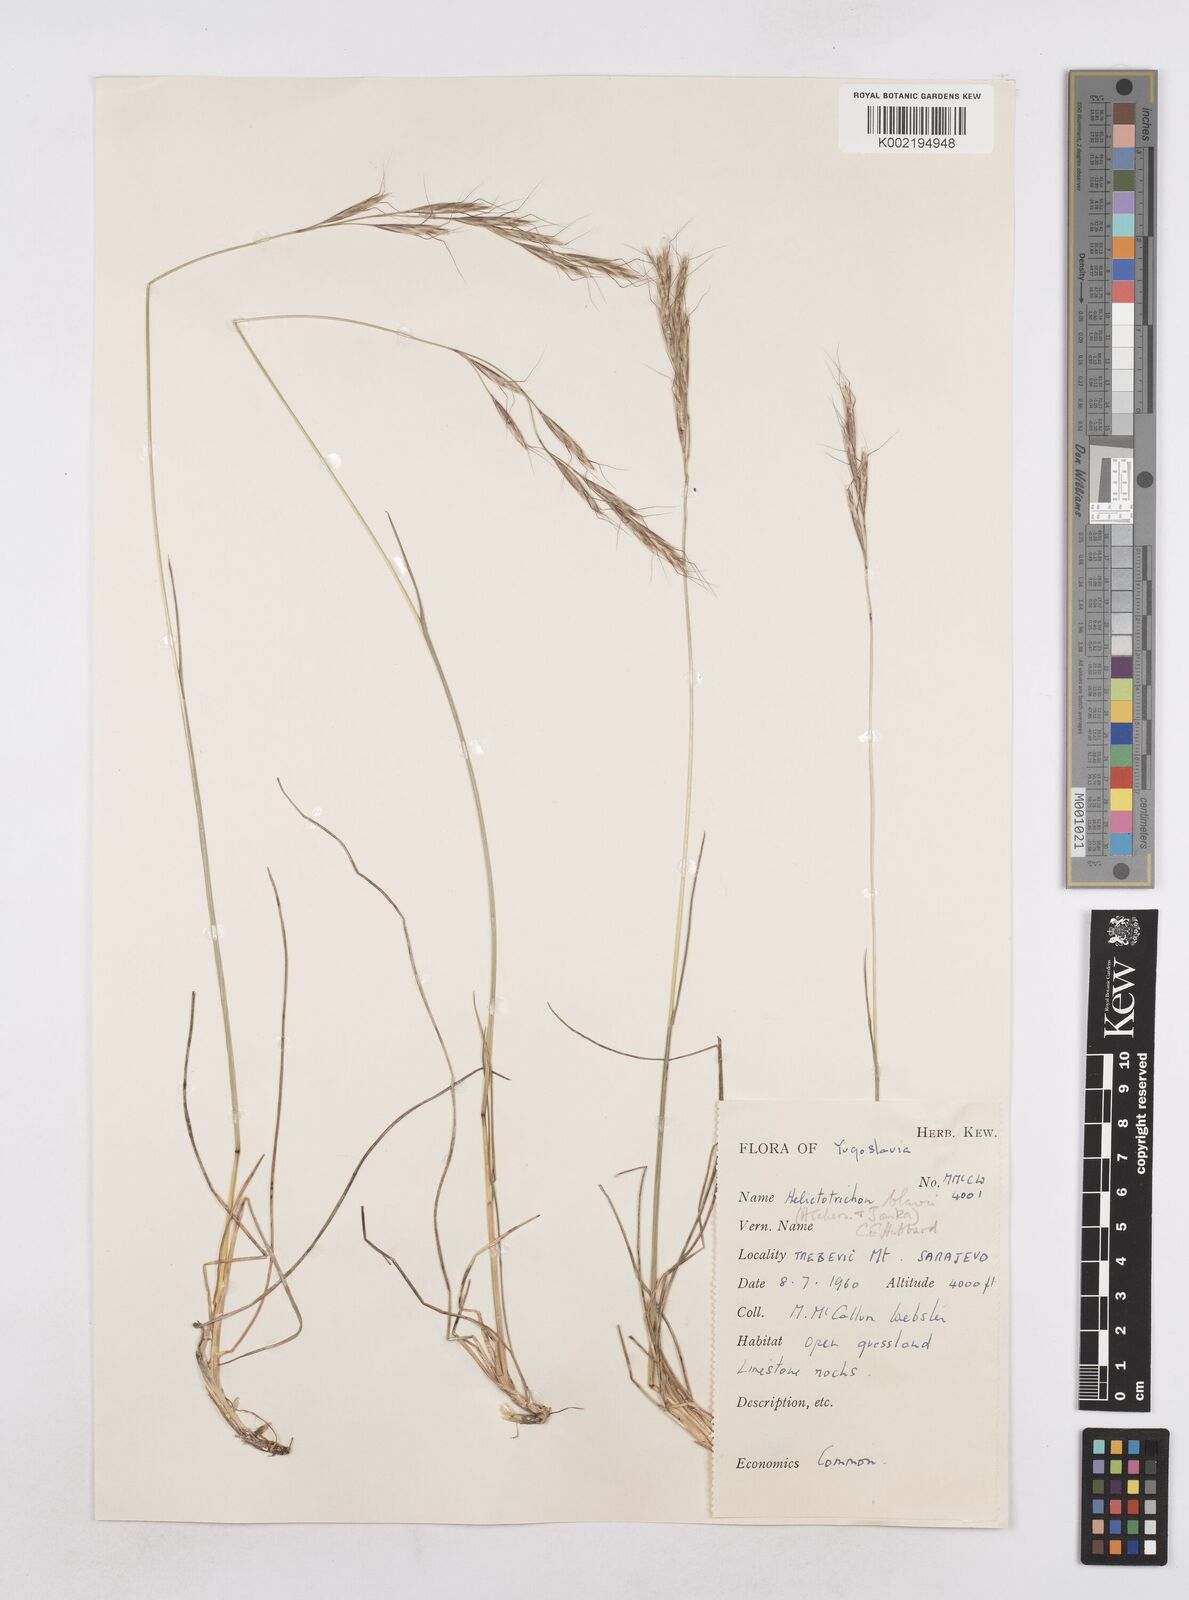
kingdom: Plantae
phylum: Tracheophyta
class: Liliopsida
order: Poales
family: Poaceae
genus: Helictochloa
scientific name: Helictochloa blaui
